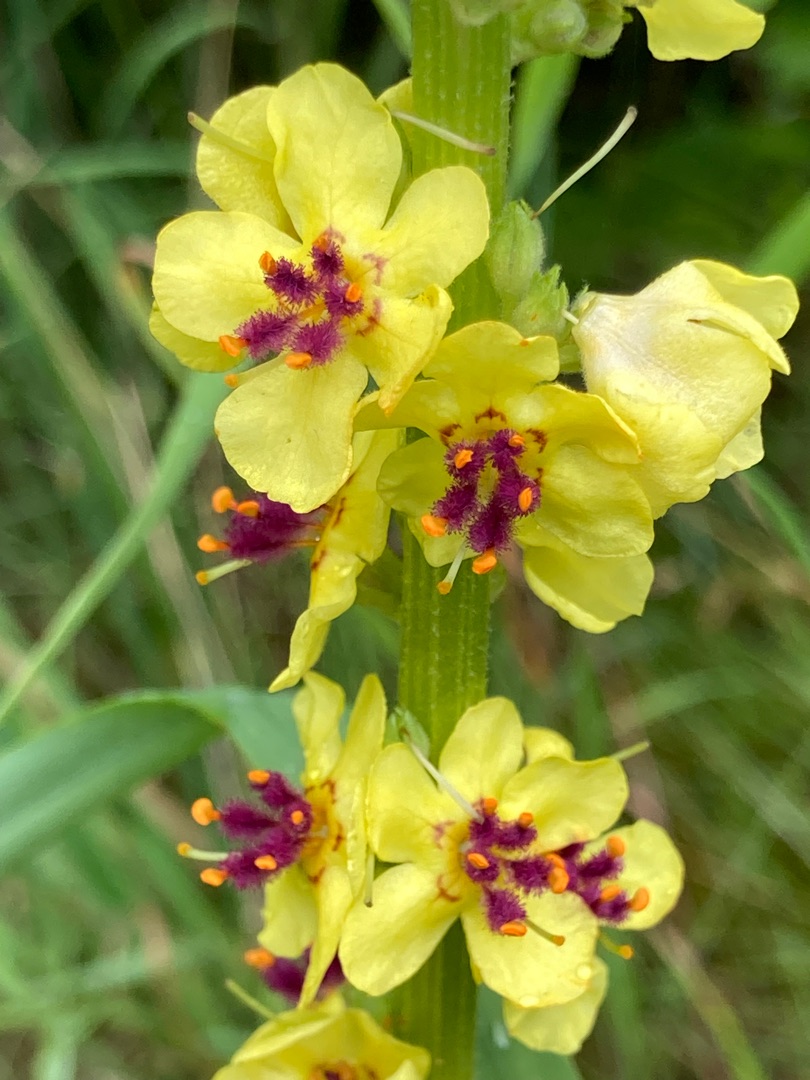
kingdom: Plantae
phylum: Tracheophyta
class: Magnoliopsida
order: Lamiales
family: Scrophulariaceae
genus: Verbascum
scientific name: Verbascum nigrum
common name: Mørk kongelys
